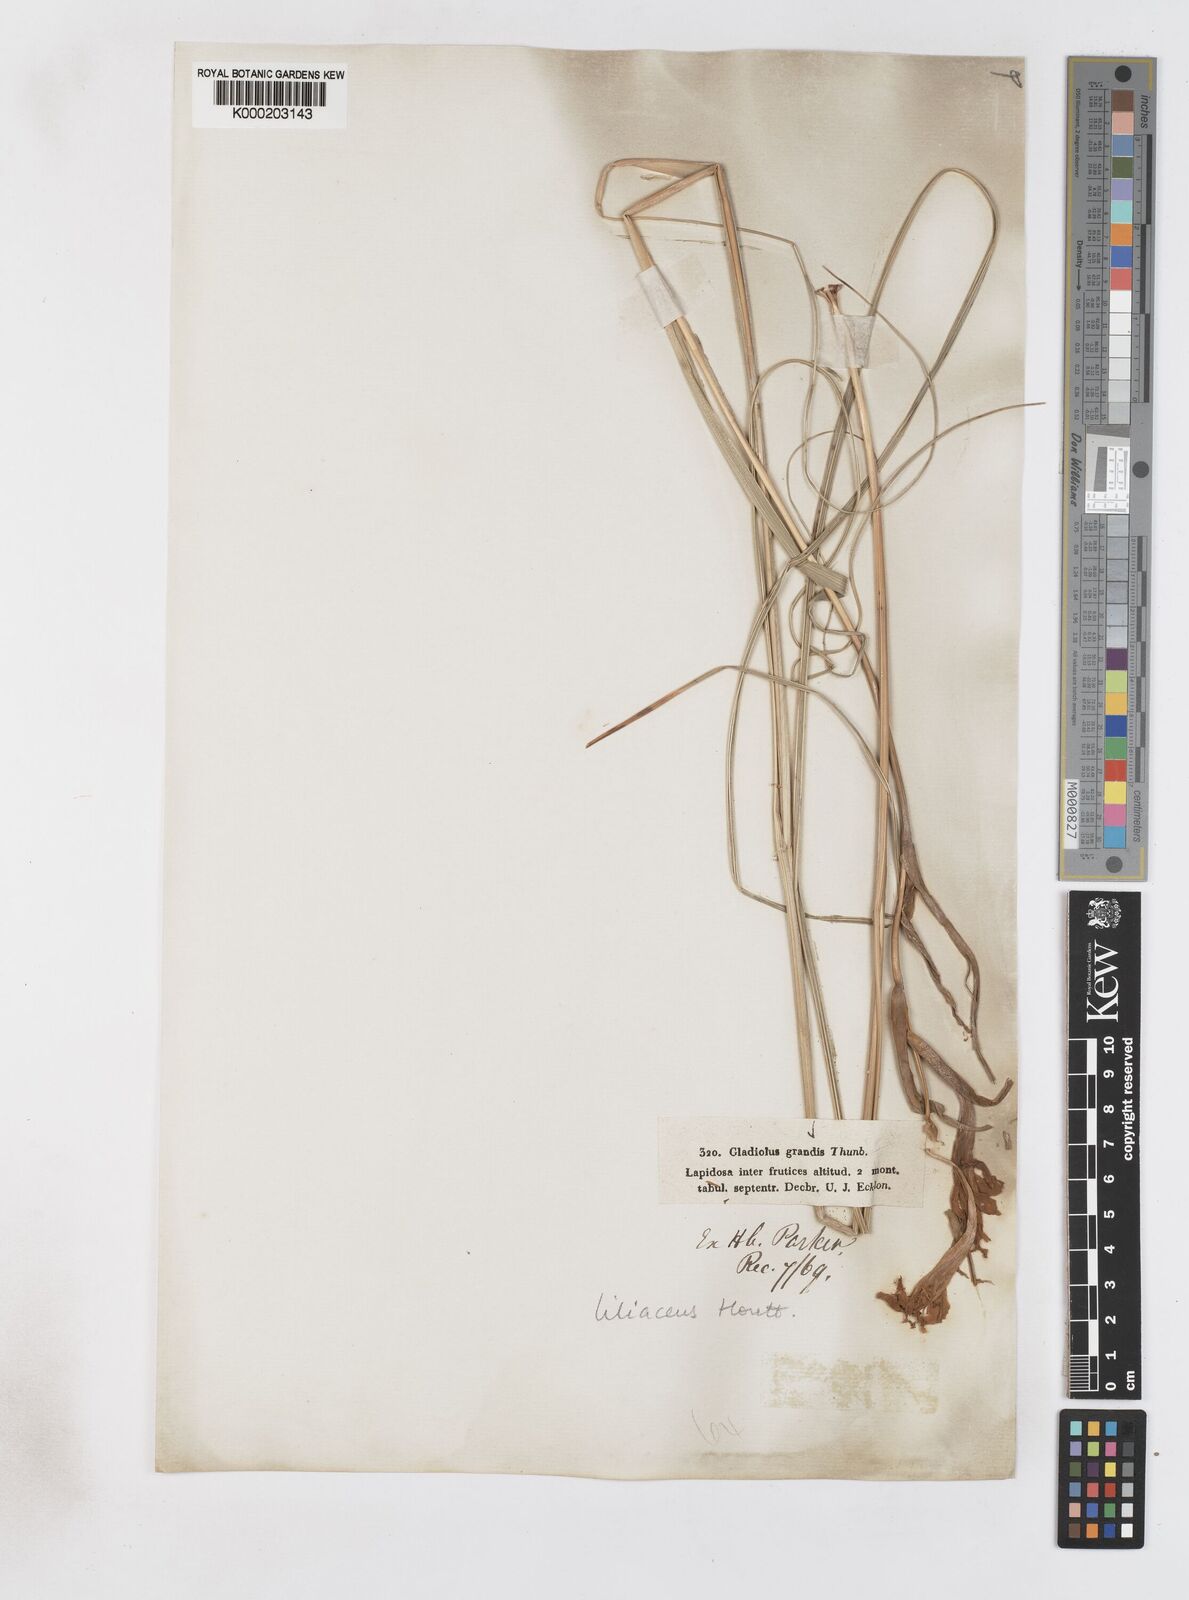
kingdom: Plantae
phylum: Tracheophyta
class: Liliopsida
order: Asparagales
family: Iridaceae
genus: Gladiolus
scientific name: Gladiolus liliaceus
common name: Large brown afrikaner
